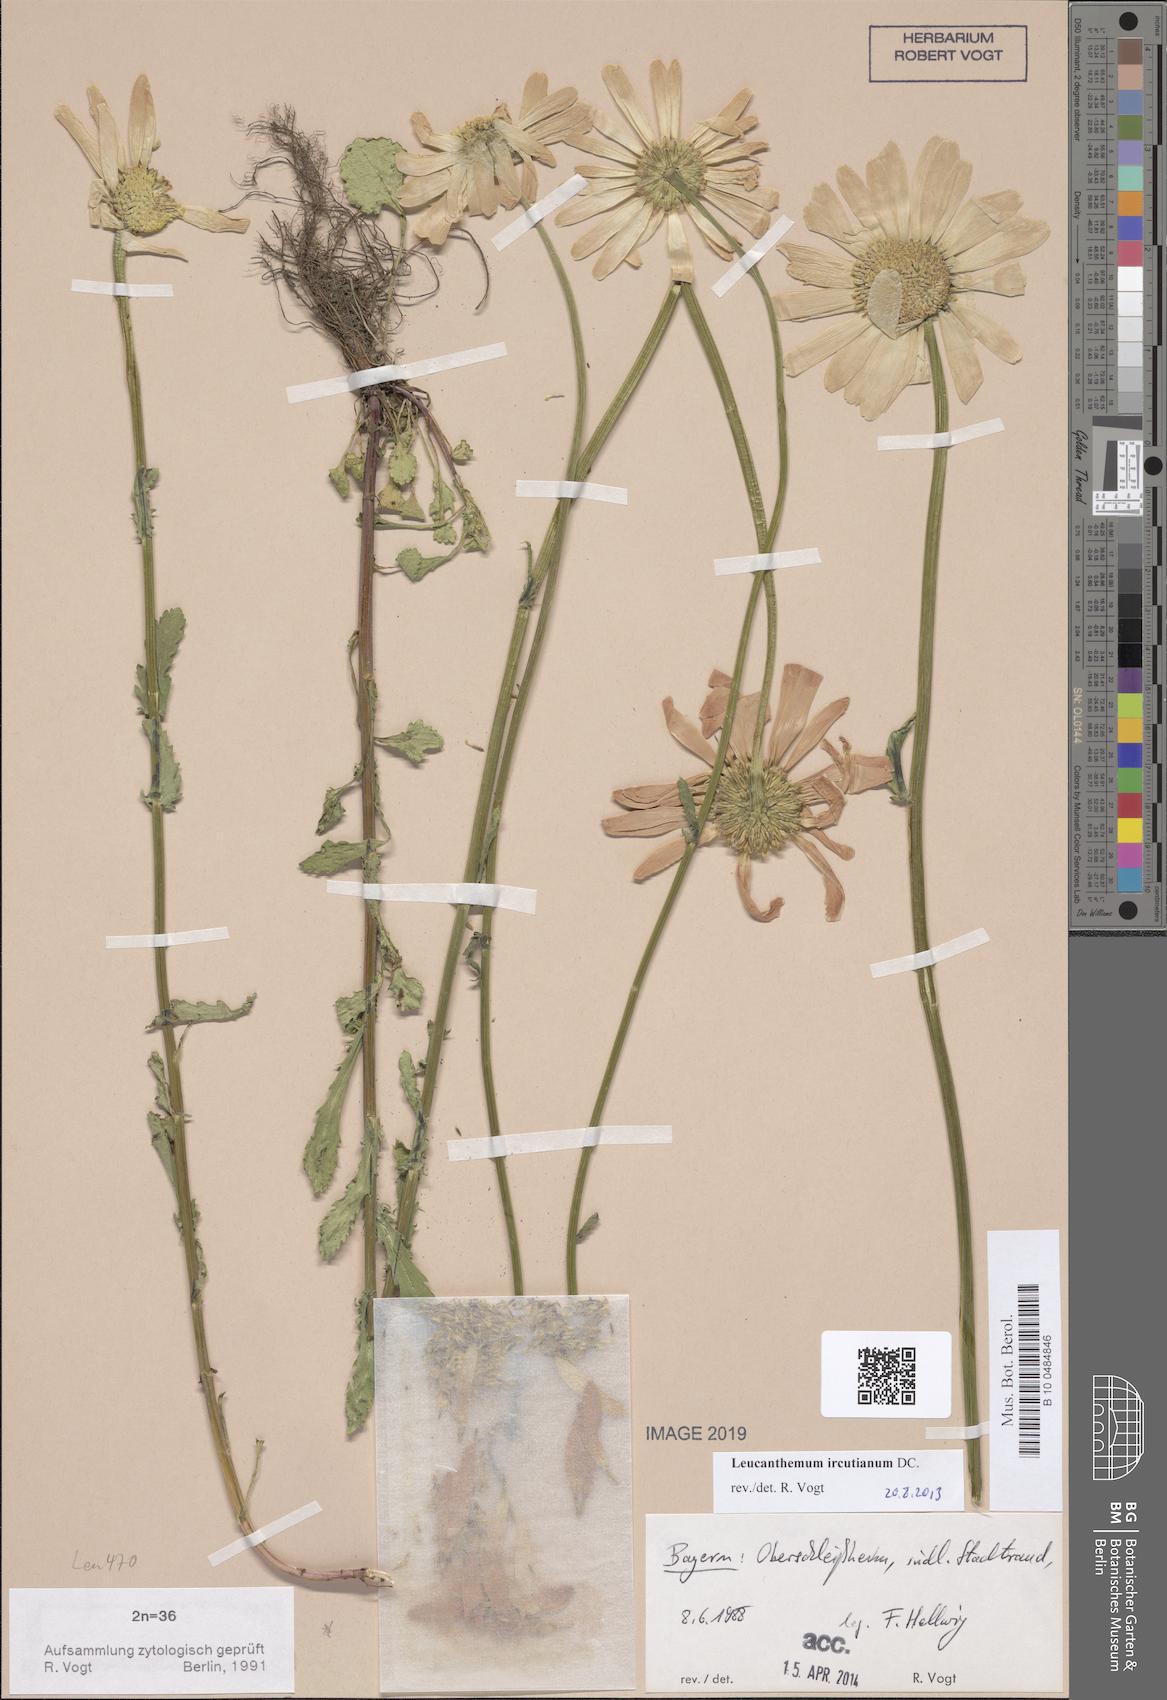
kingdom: Plantae
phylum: Tracheophyta
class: Magnoliopsida
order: Asterales
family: Asteraceae
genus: Leucanthemum
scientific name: Leucanthemum ircutianum
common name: Daisy
